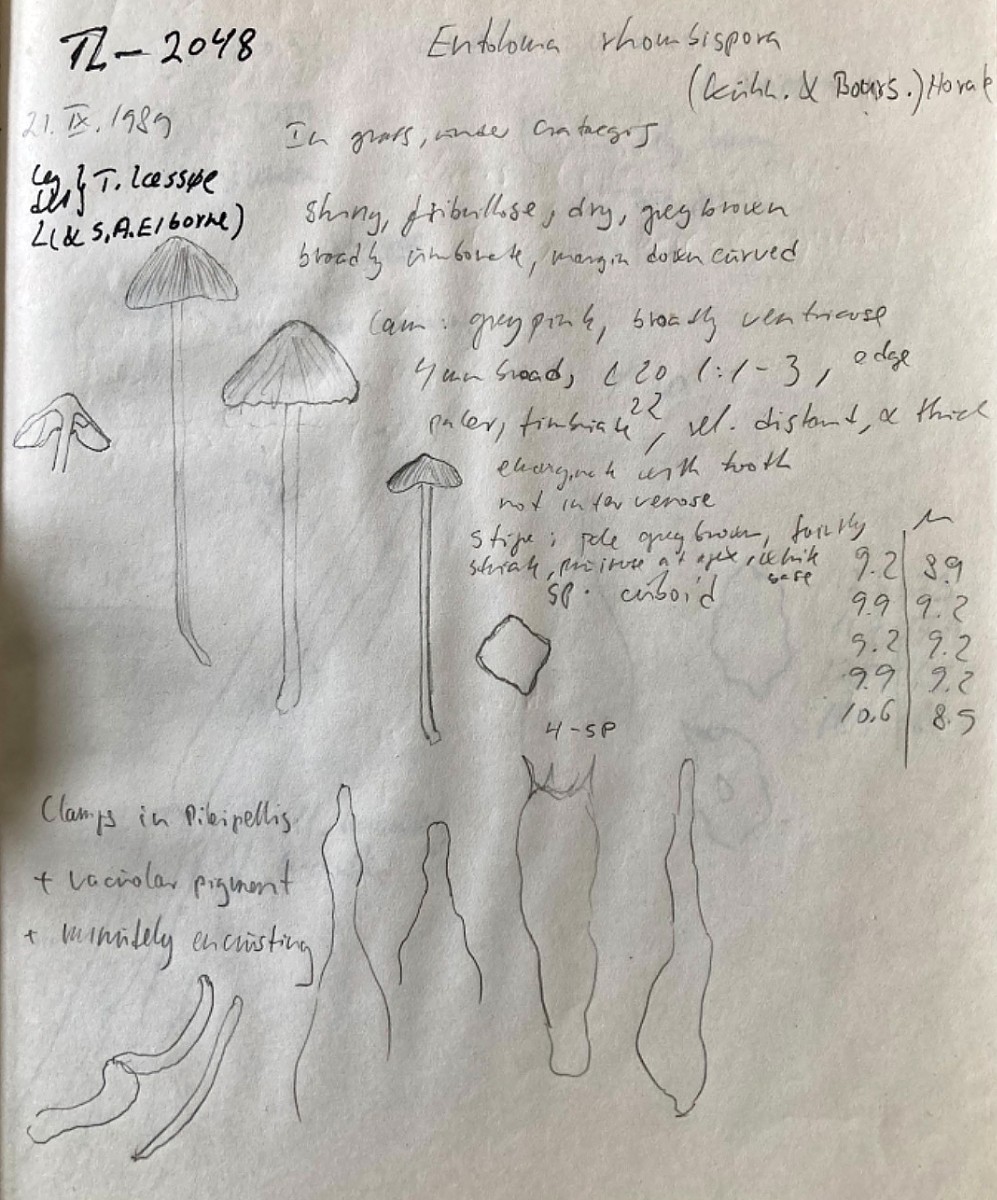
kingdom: Fungi
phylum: Basidiomycota
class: Agaricomycetes
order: Agaricales
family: Entolomataceae
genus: Entoloma
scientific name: Entoloma
